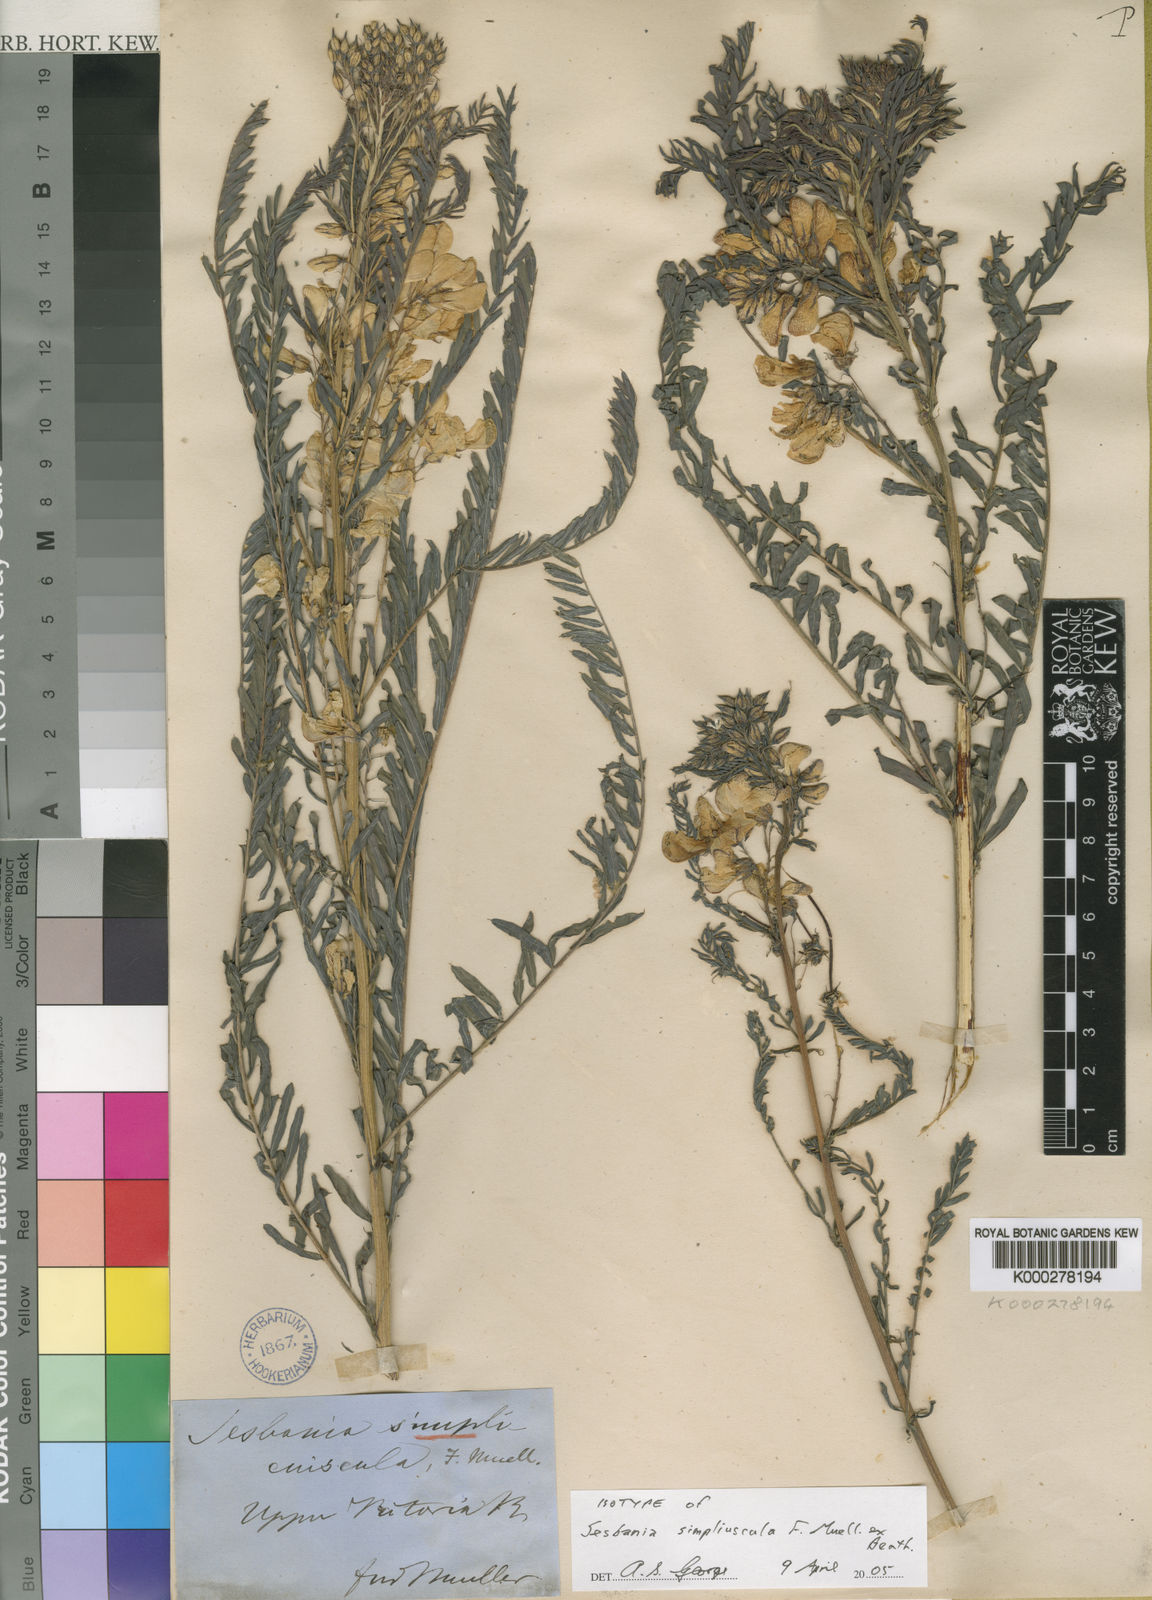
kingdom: Plantae
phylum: Tracheophyta
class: Magnoliopsida
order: Fabales
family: Fabaceae
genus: Sesbania
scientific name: Sesbania simpliciuscula
